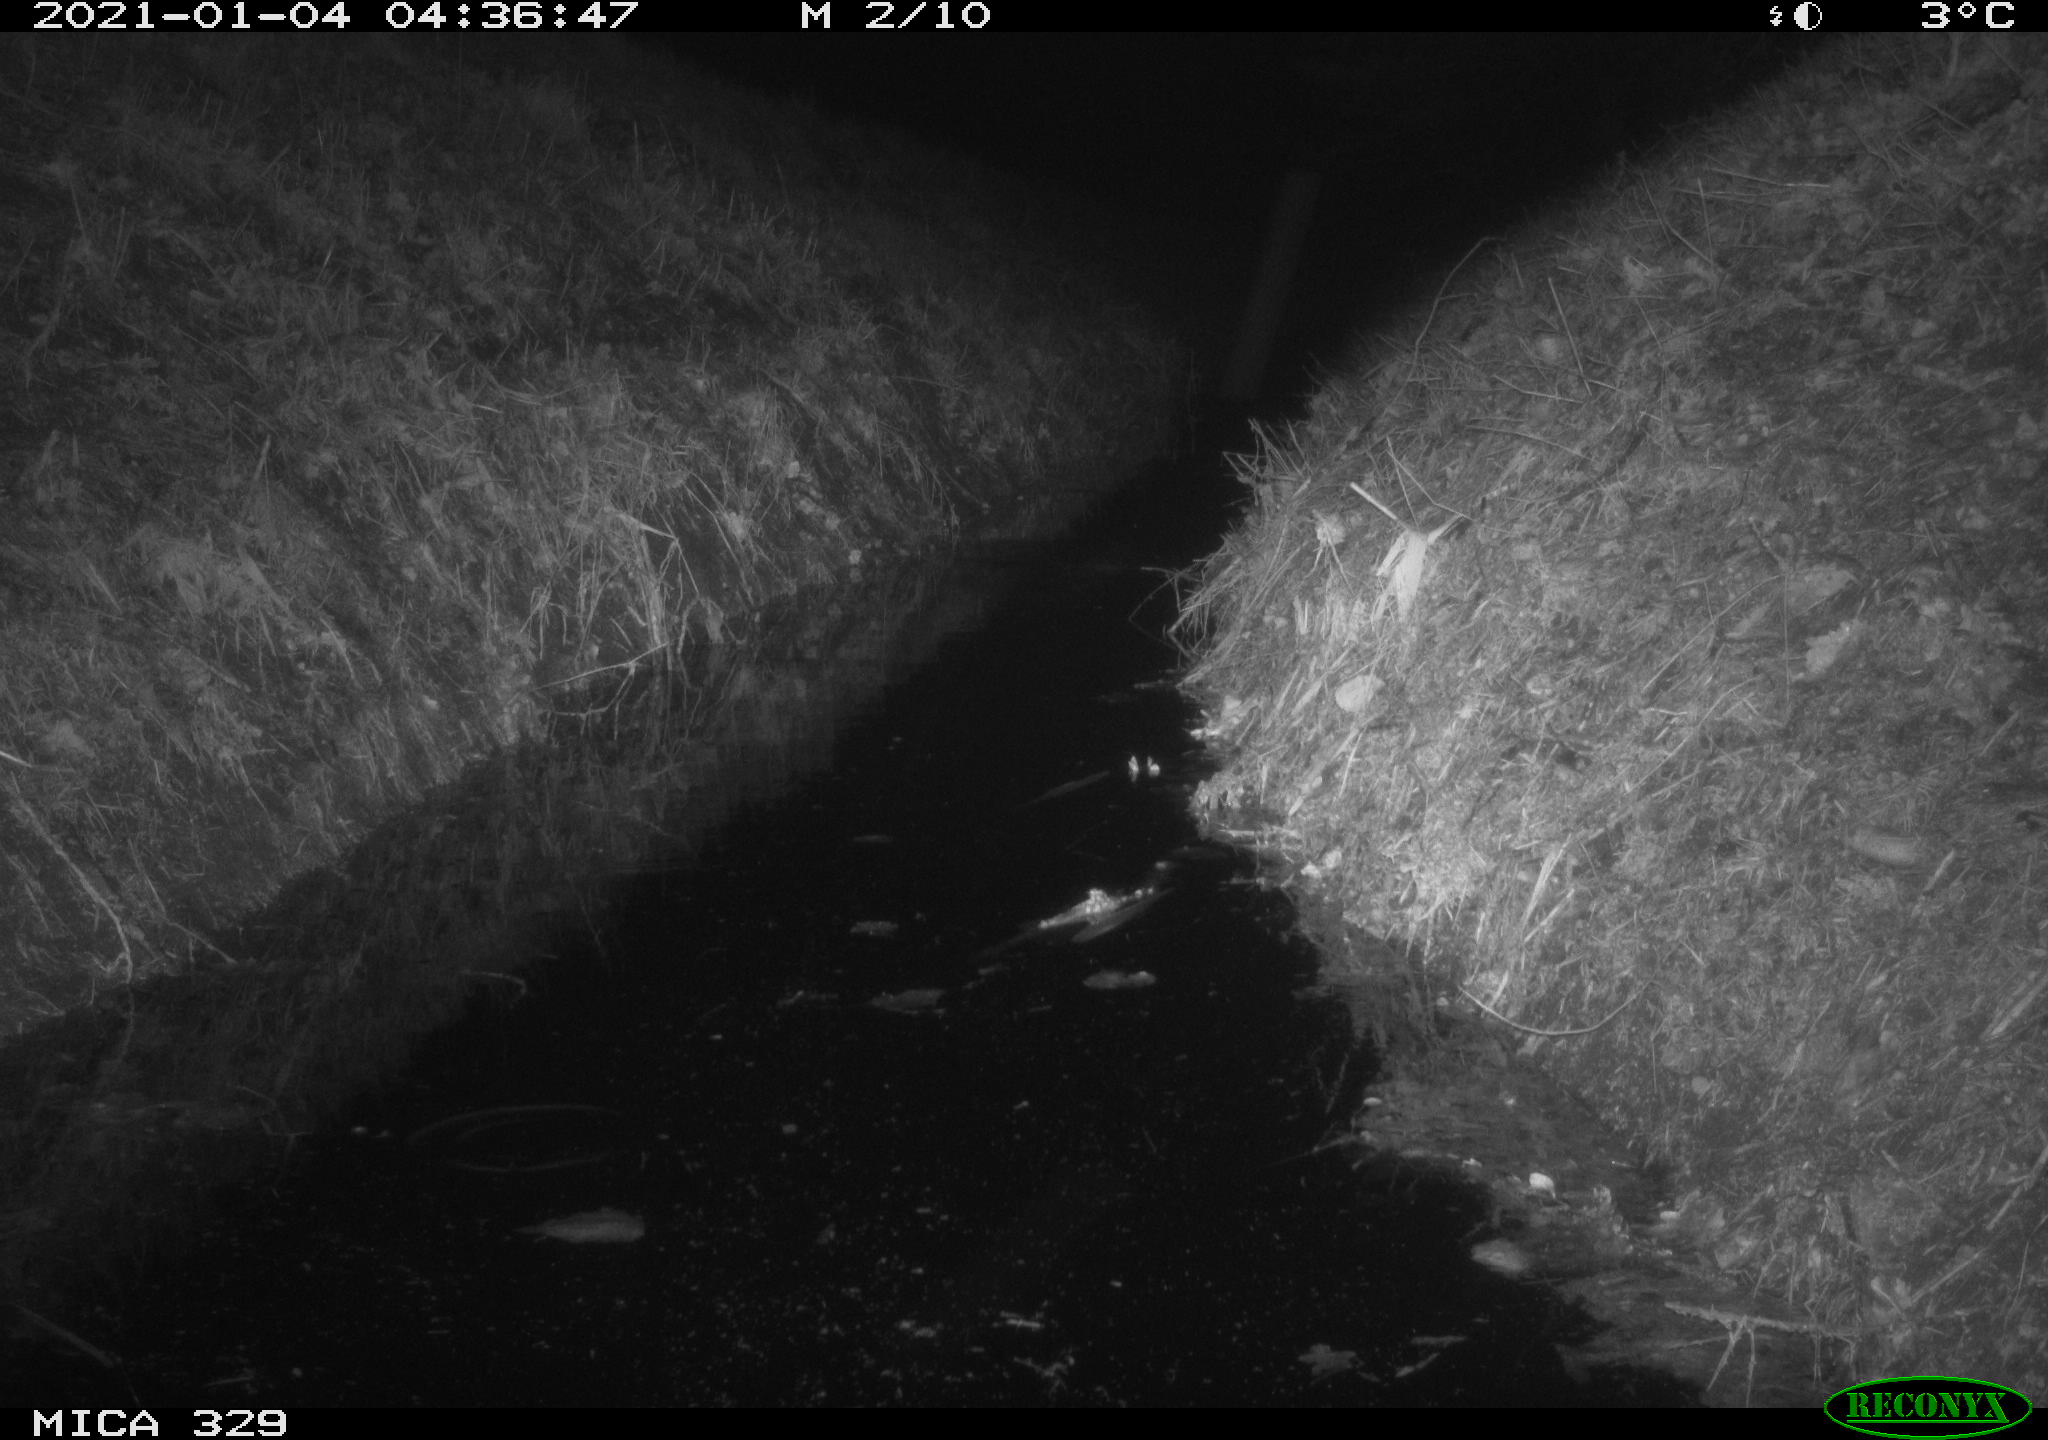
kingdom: Animalia
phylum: Chordata
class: Mammalia
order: Rodentia
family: Muridae
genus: Rattus
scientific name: Rattus norvegicus
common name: Brown rat
